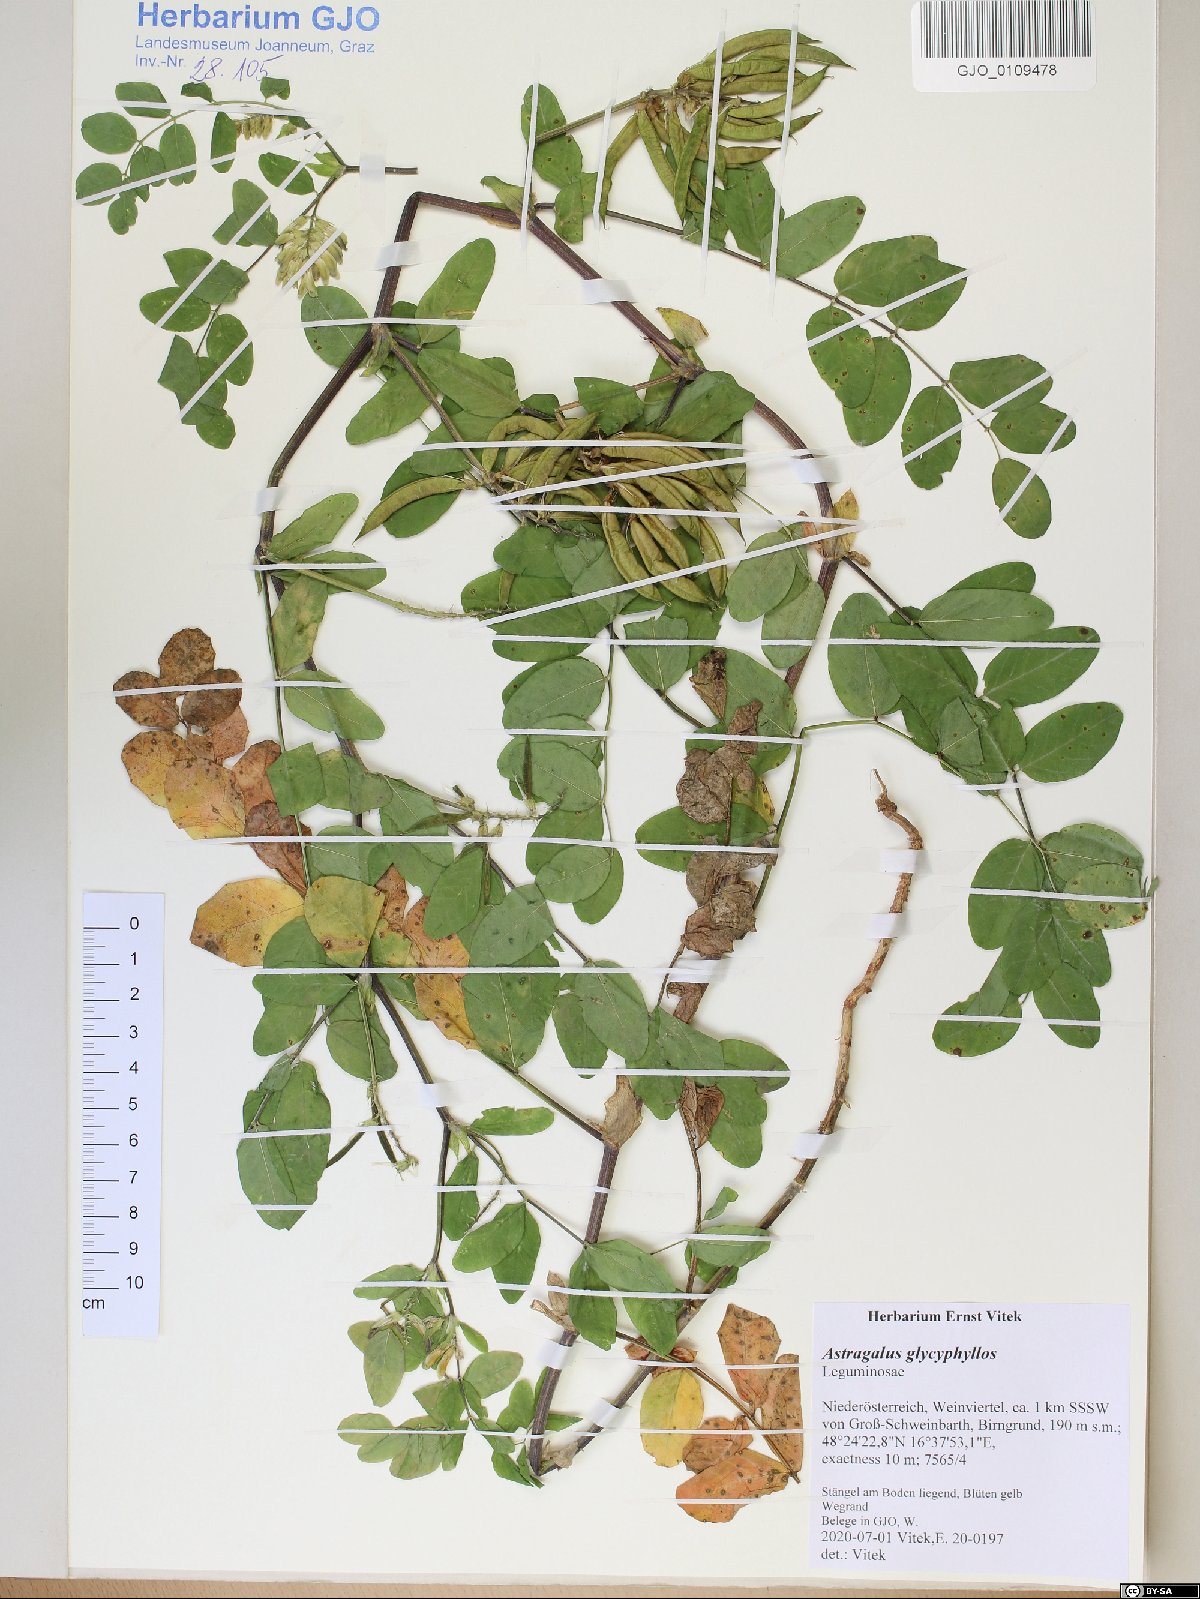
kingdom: Plantae
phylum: Tracheophyta
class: Magnoliopsida
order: Fabales
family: Fabaceae
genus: Astragalus
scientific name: Astragalus glycyphyllos
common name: Wild liquorice
